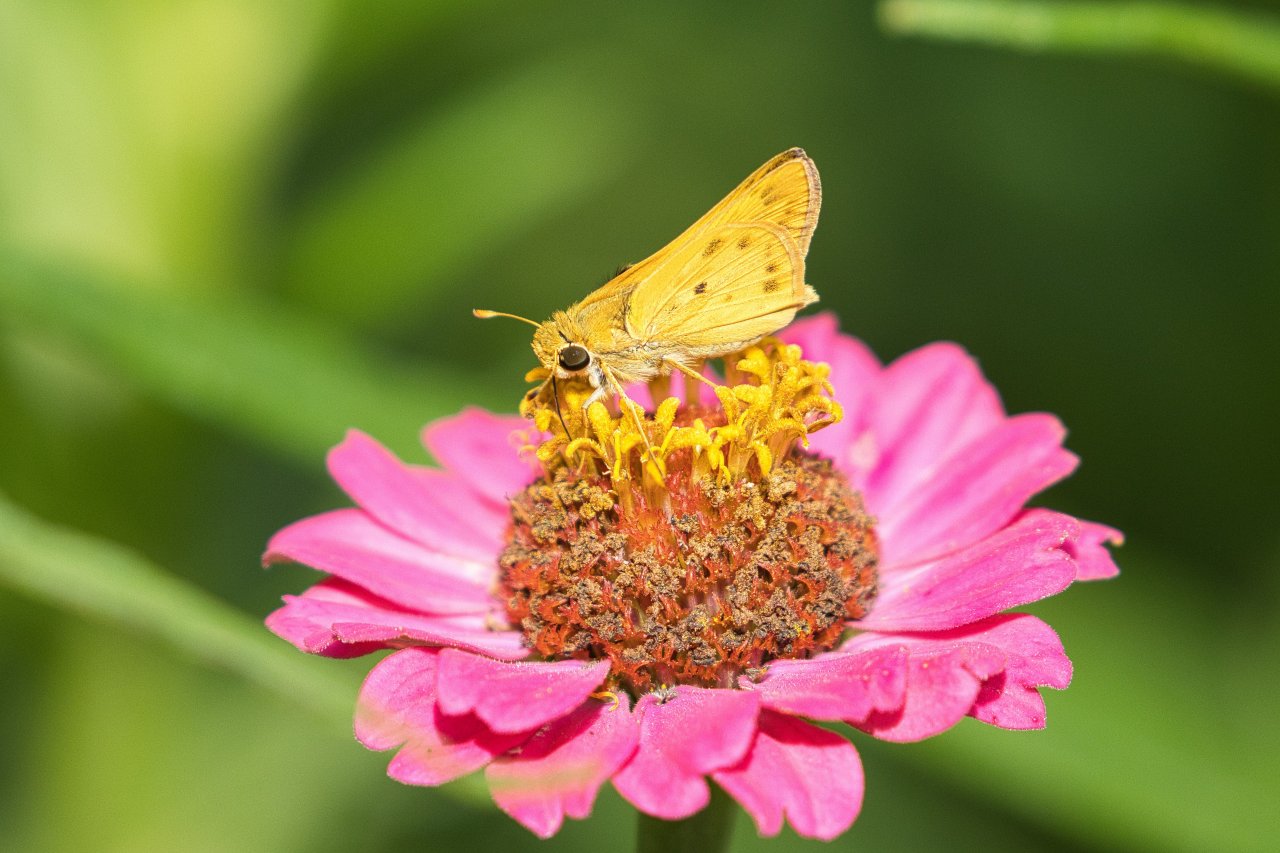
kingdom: Animalia
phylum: Arthropoda
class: Insecta
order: Lepidoptera
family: Hesperiidae
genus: Polites
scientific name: Polites vibex
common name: Whirlabout
